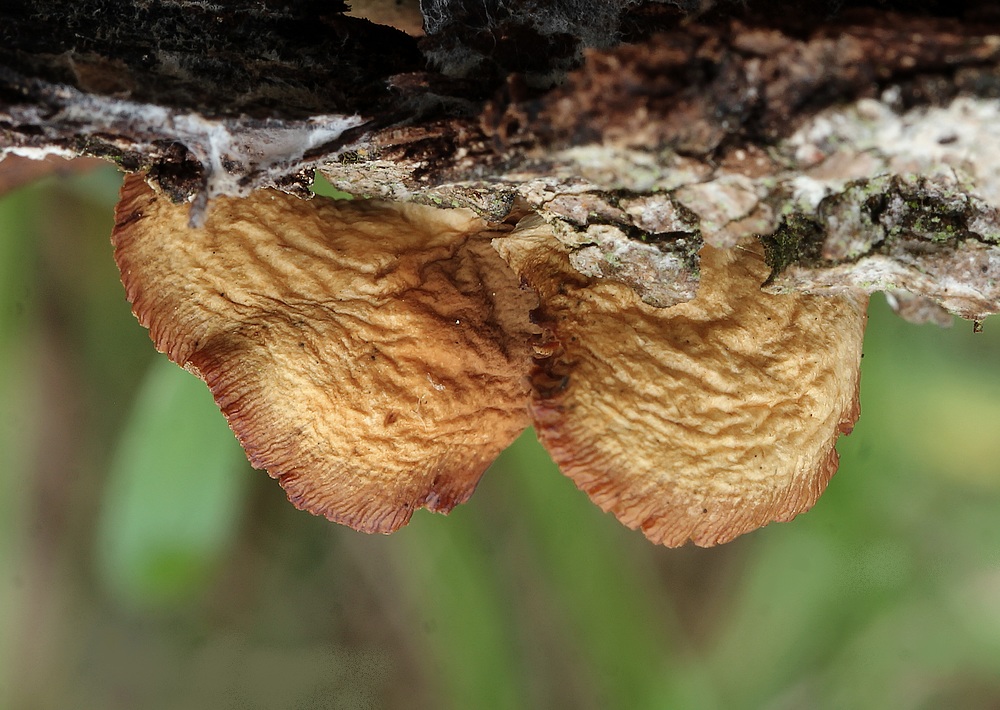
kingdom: Fungi
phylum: Basidiomycota
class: Agaricomycetes
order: Agaricales
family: Crepidotaceae
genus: Crepidotus
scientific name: Crepidotus
